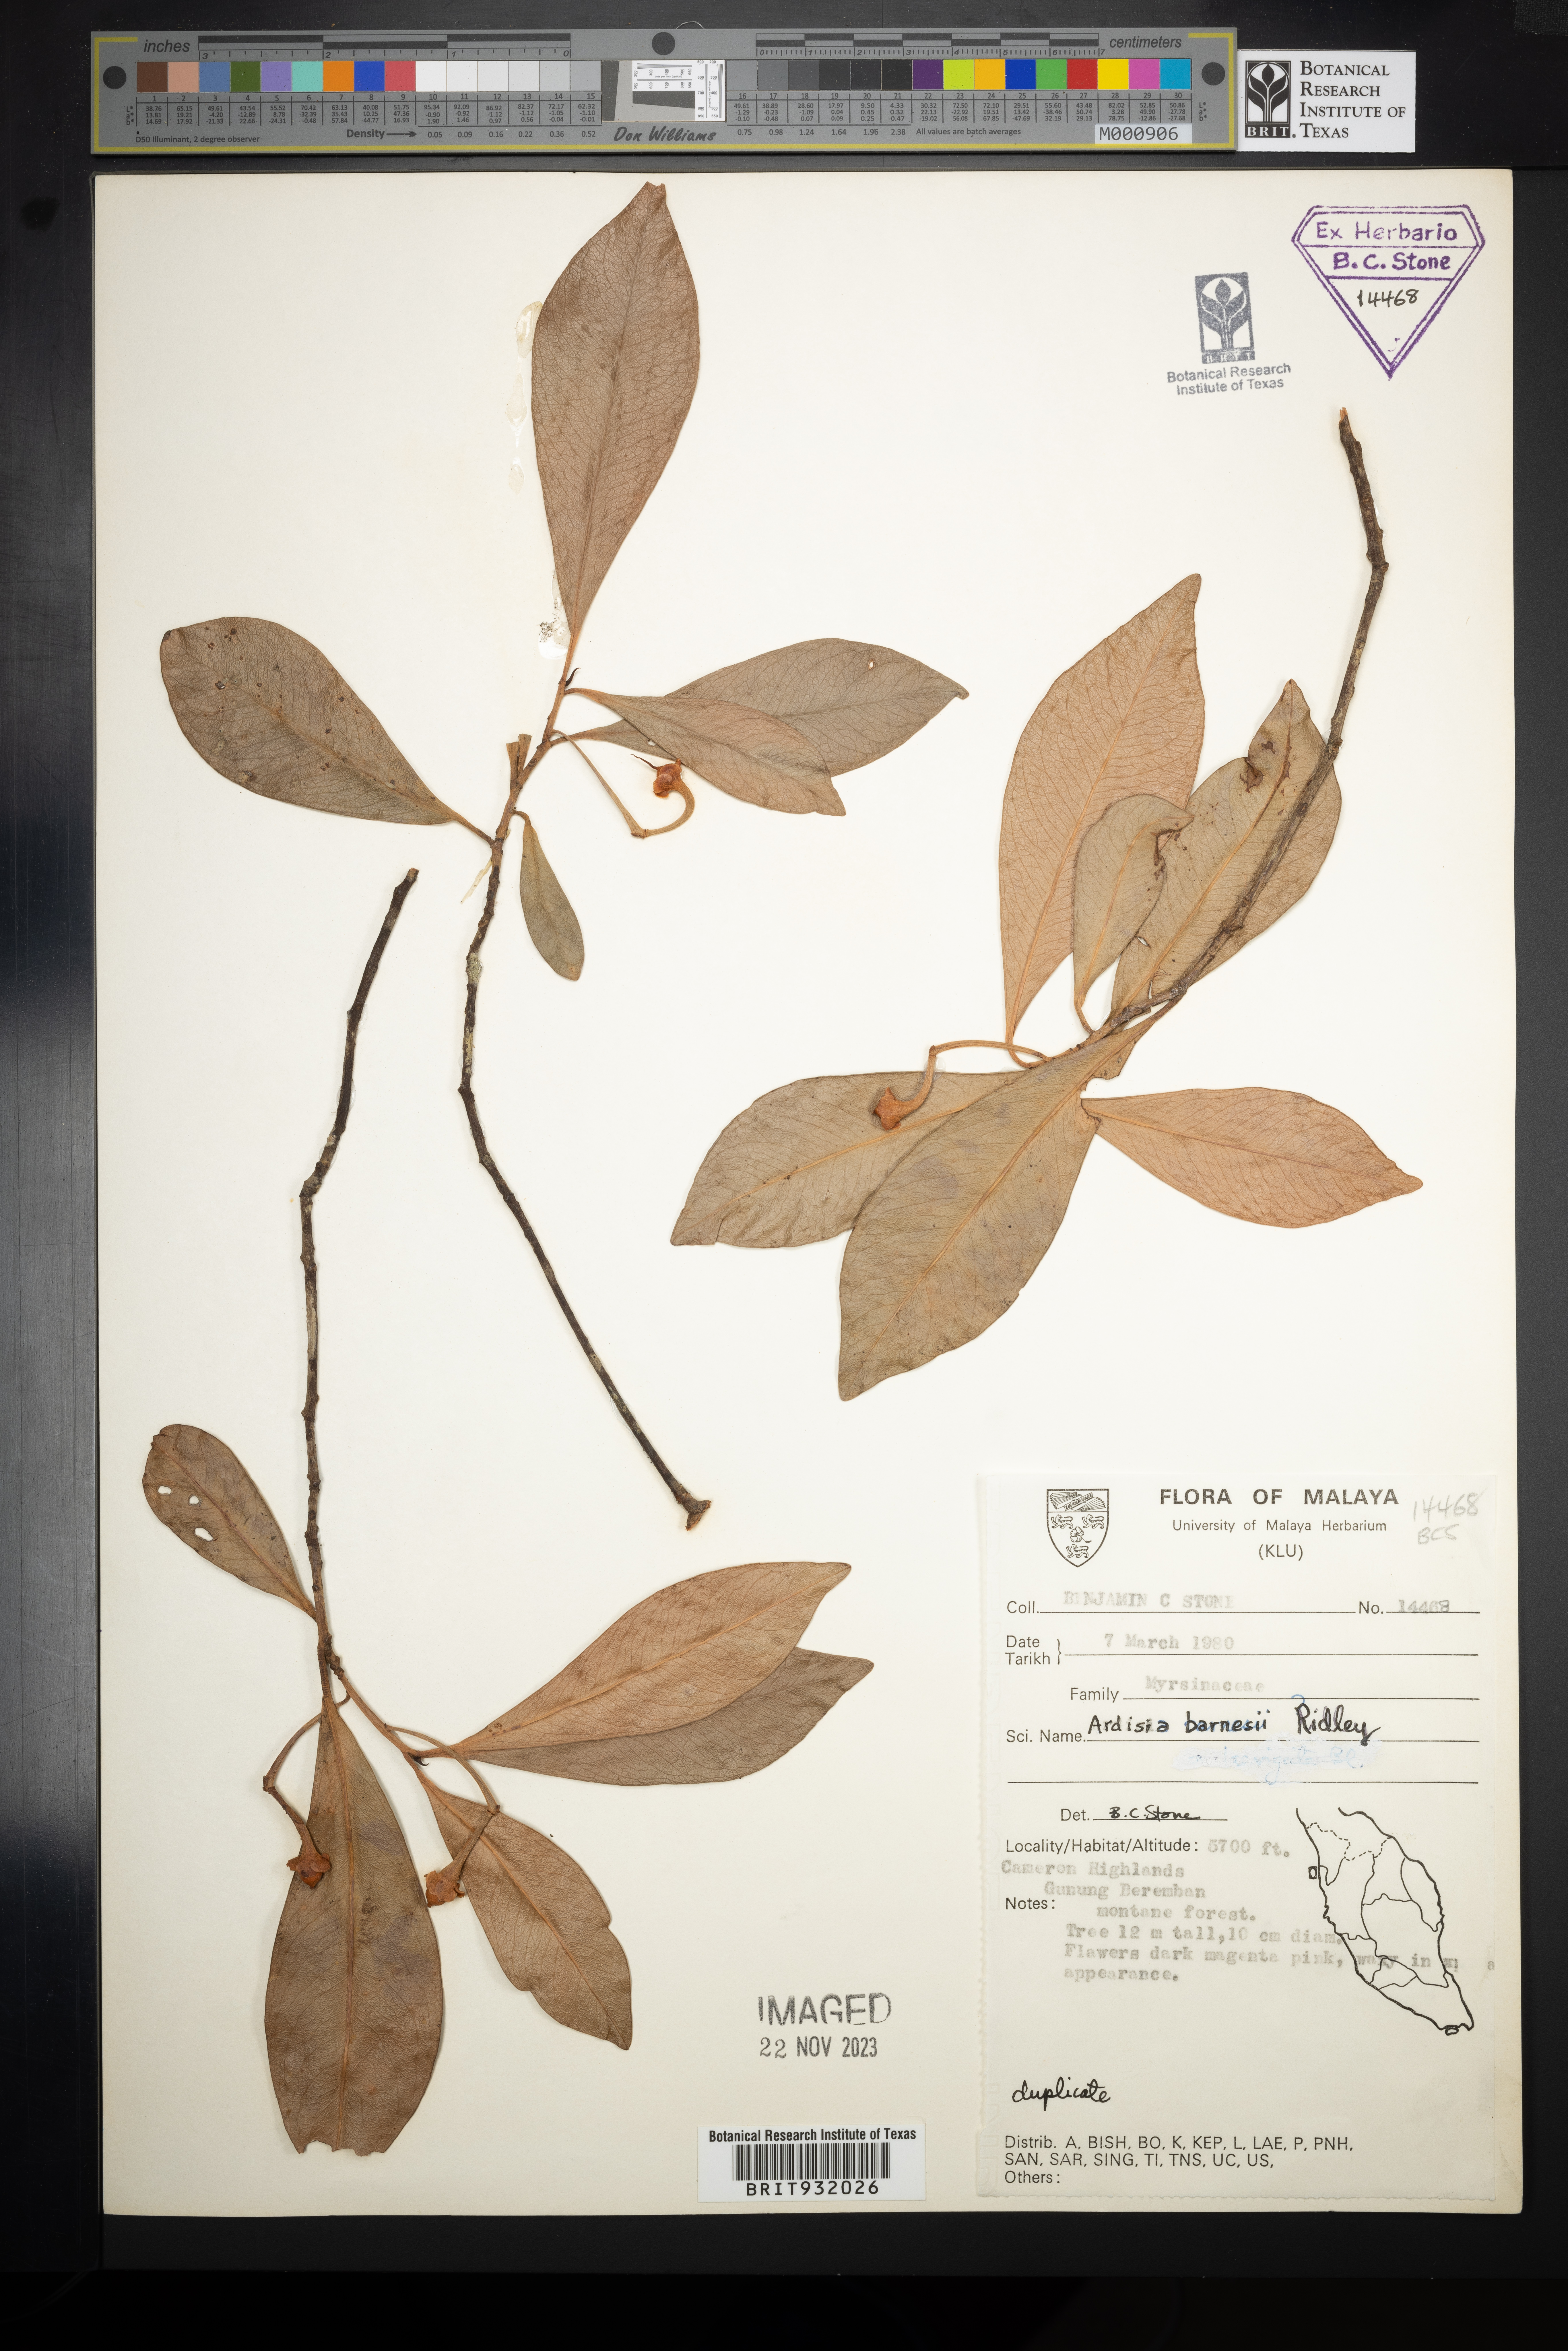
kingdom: Plantae
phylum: Tracheophyta
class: Magnoliopsida
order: Ericales
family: Primulaceae
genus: Ardisia
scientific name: Ardisia
